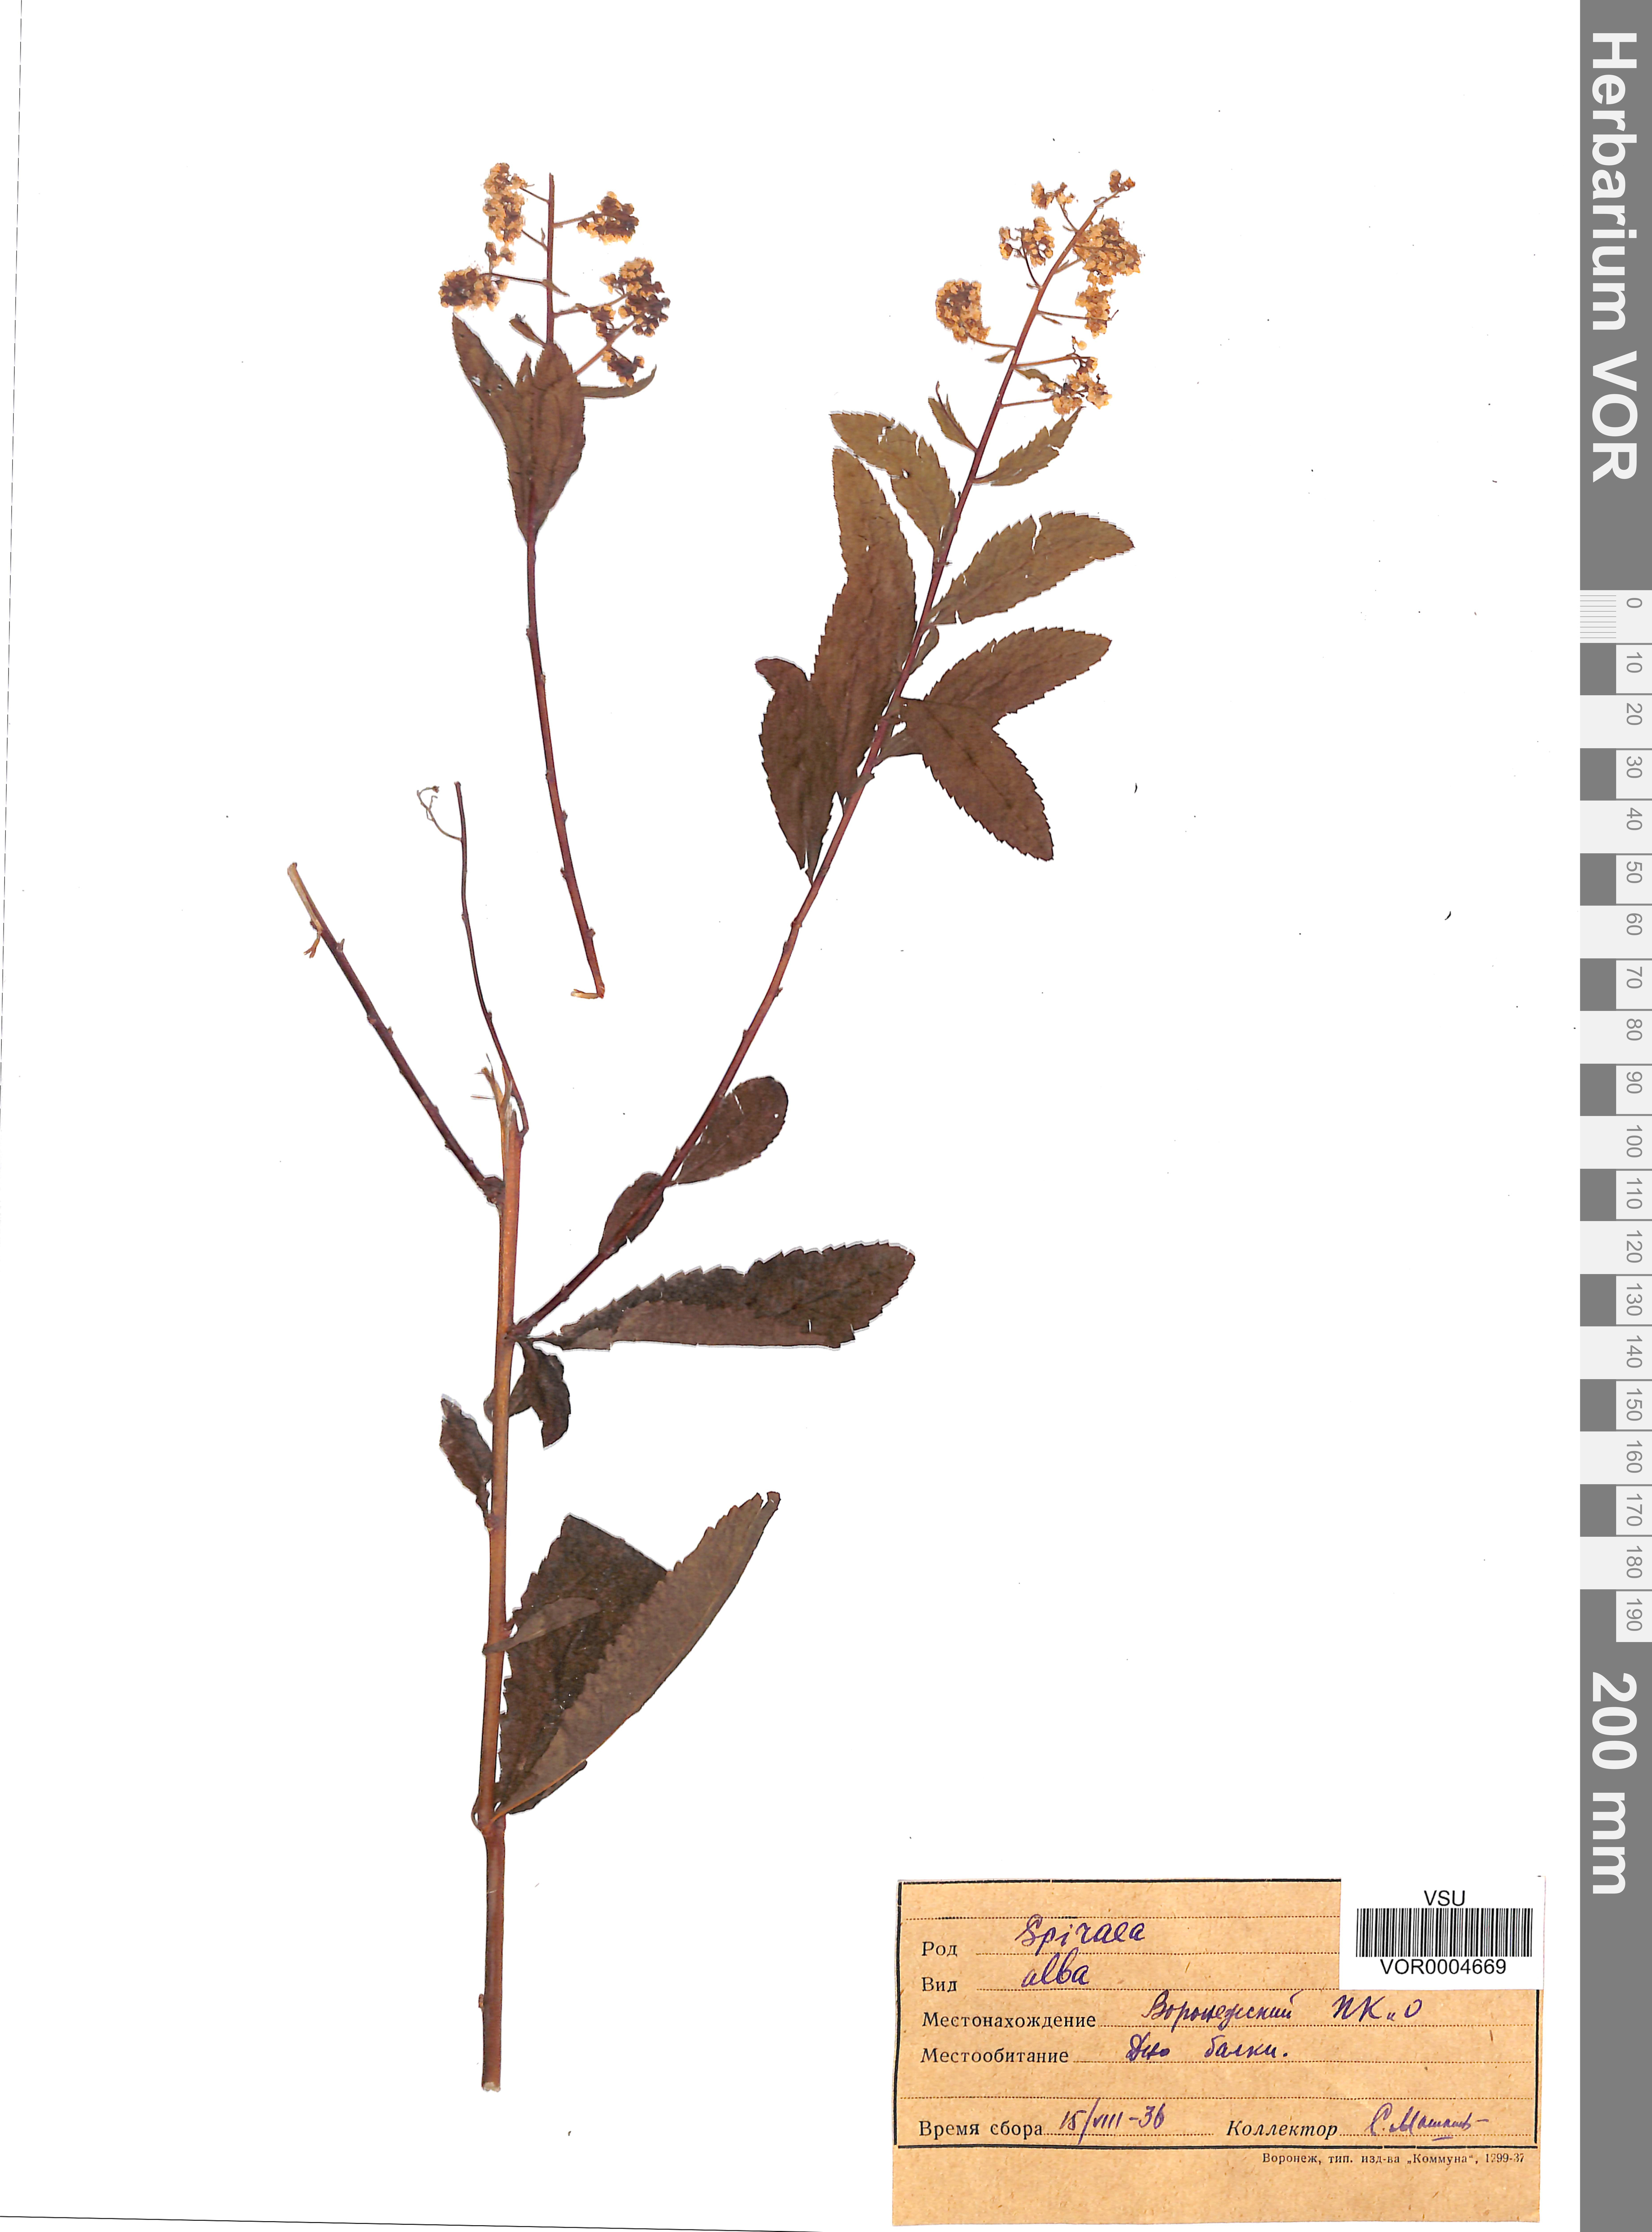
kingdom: Plantae
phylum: Tracheophyta
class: Magnoliopsida
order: Rosales
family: Rosaceae
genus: Spiraea
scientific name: Spiraea alba
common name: Pale bridewort
